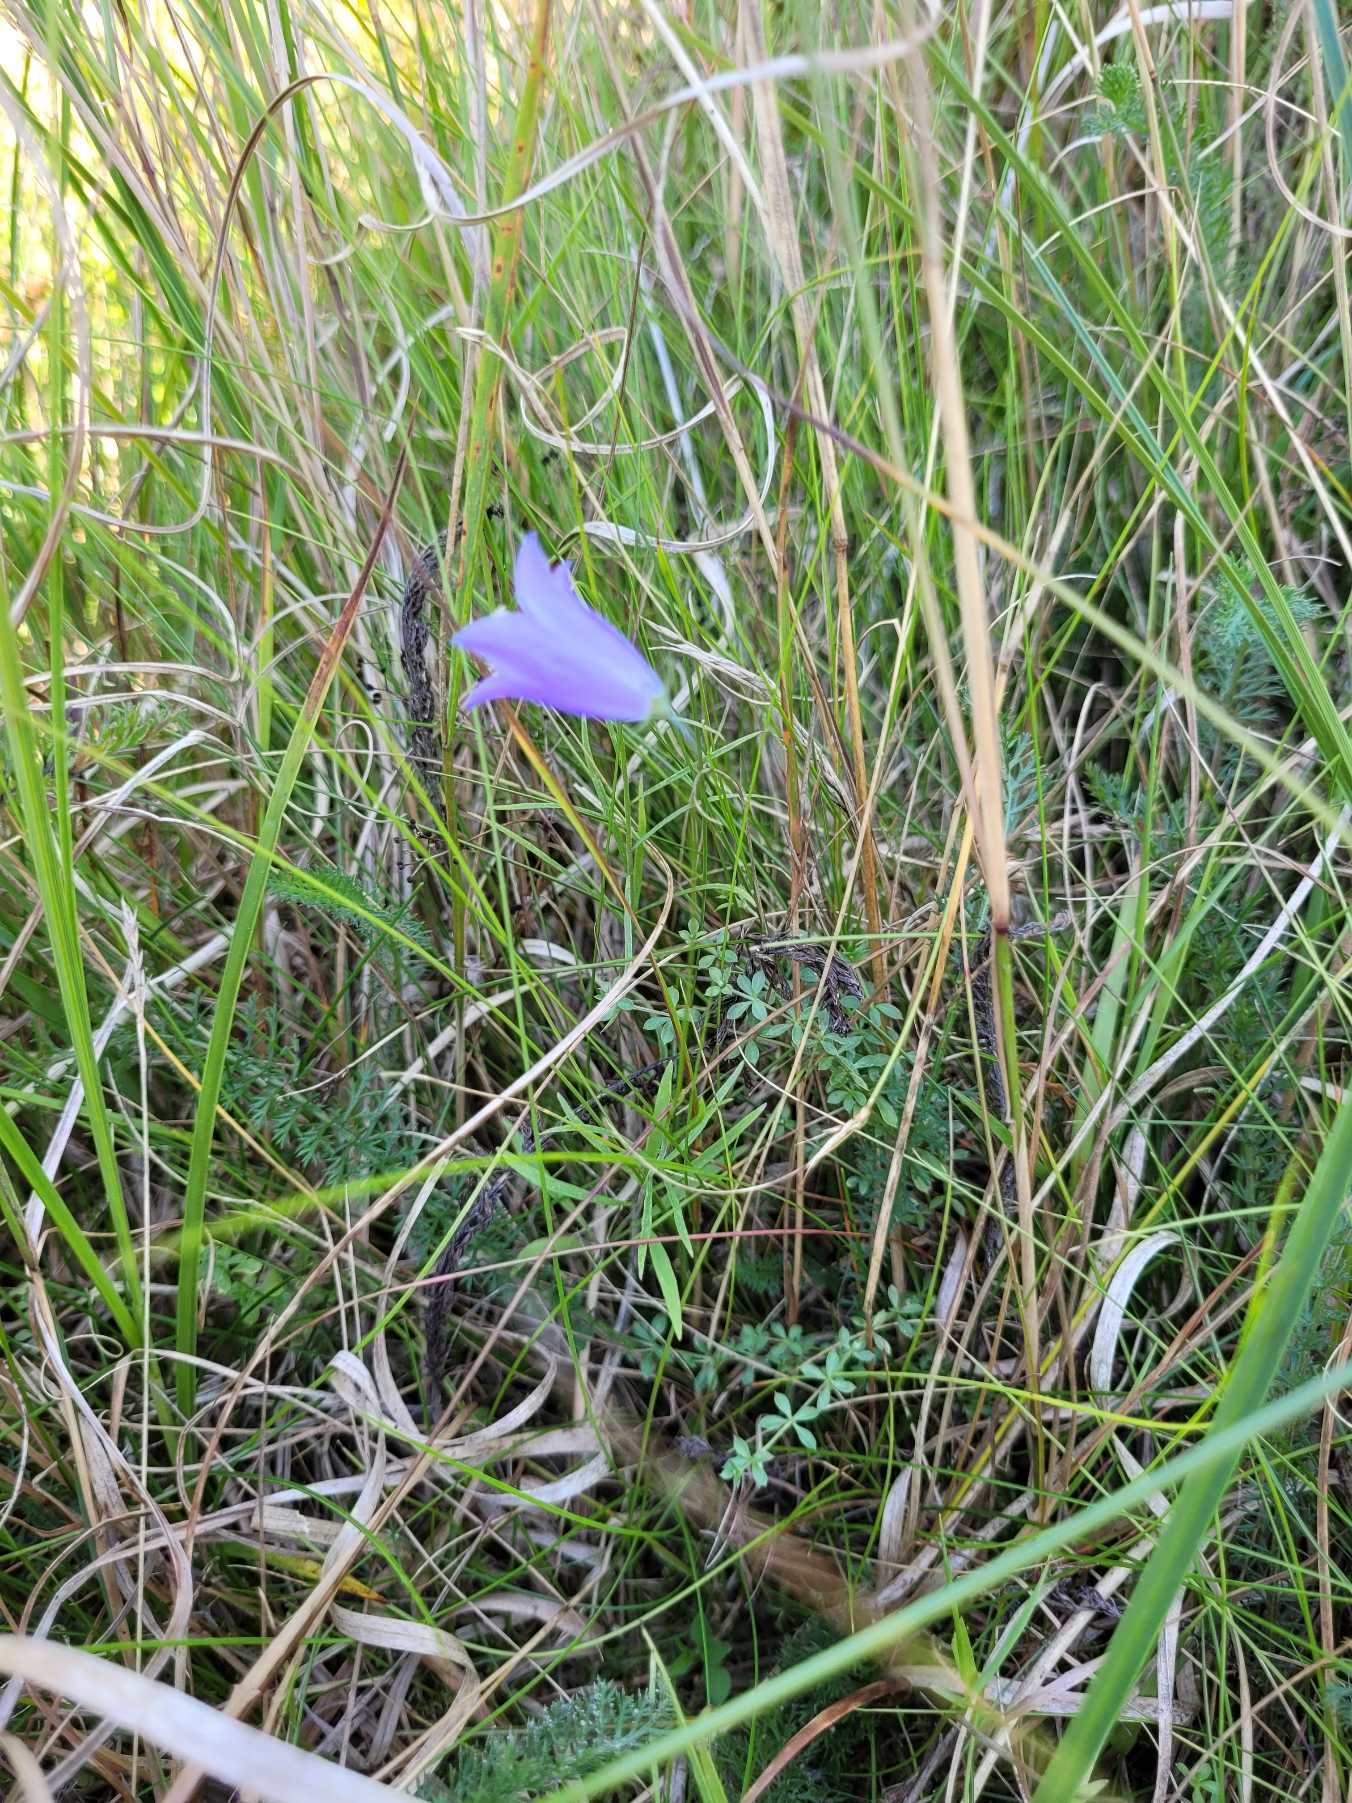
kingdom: Plantae
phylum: Tracheophyta
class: Magnoliopsida
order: Asterales
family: Campanulaceae
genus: Campanula
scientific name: Campanula rotundifolia
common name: Liden klokke
